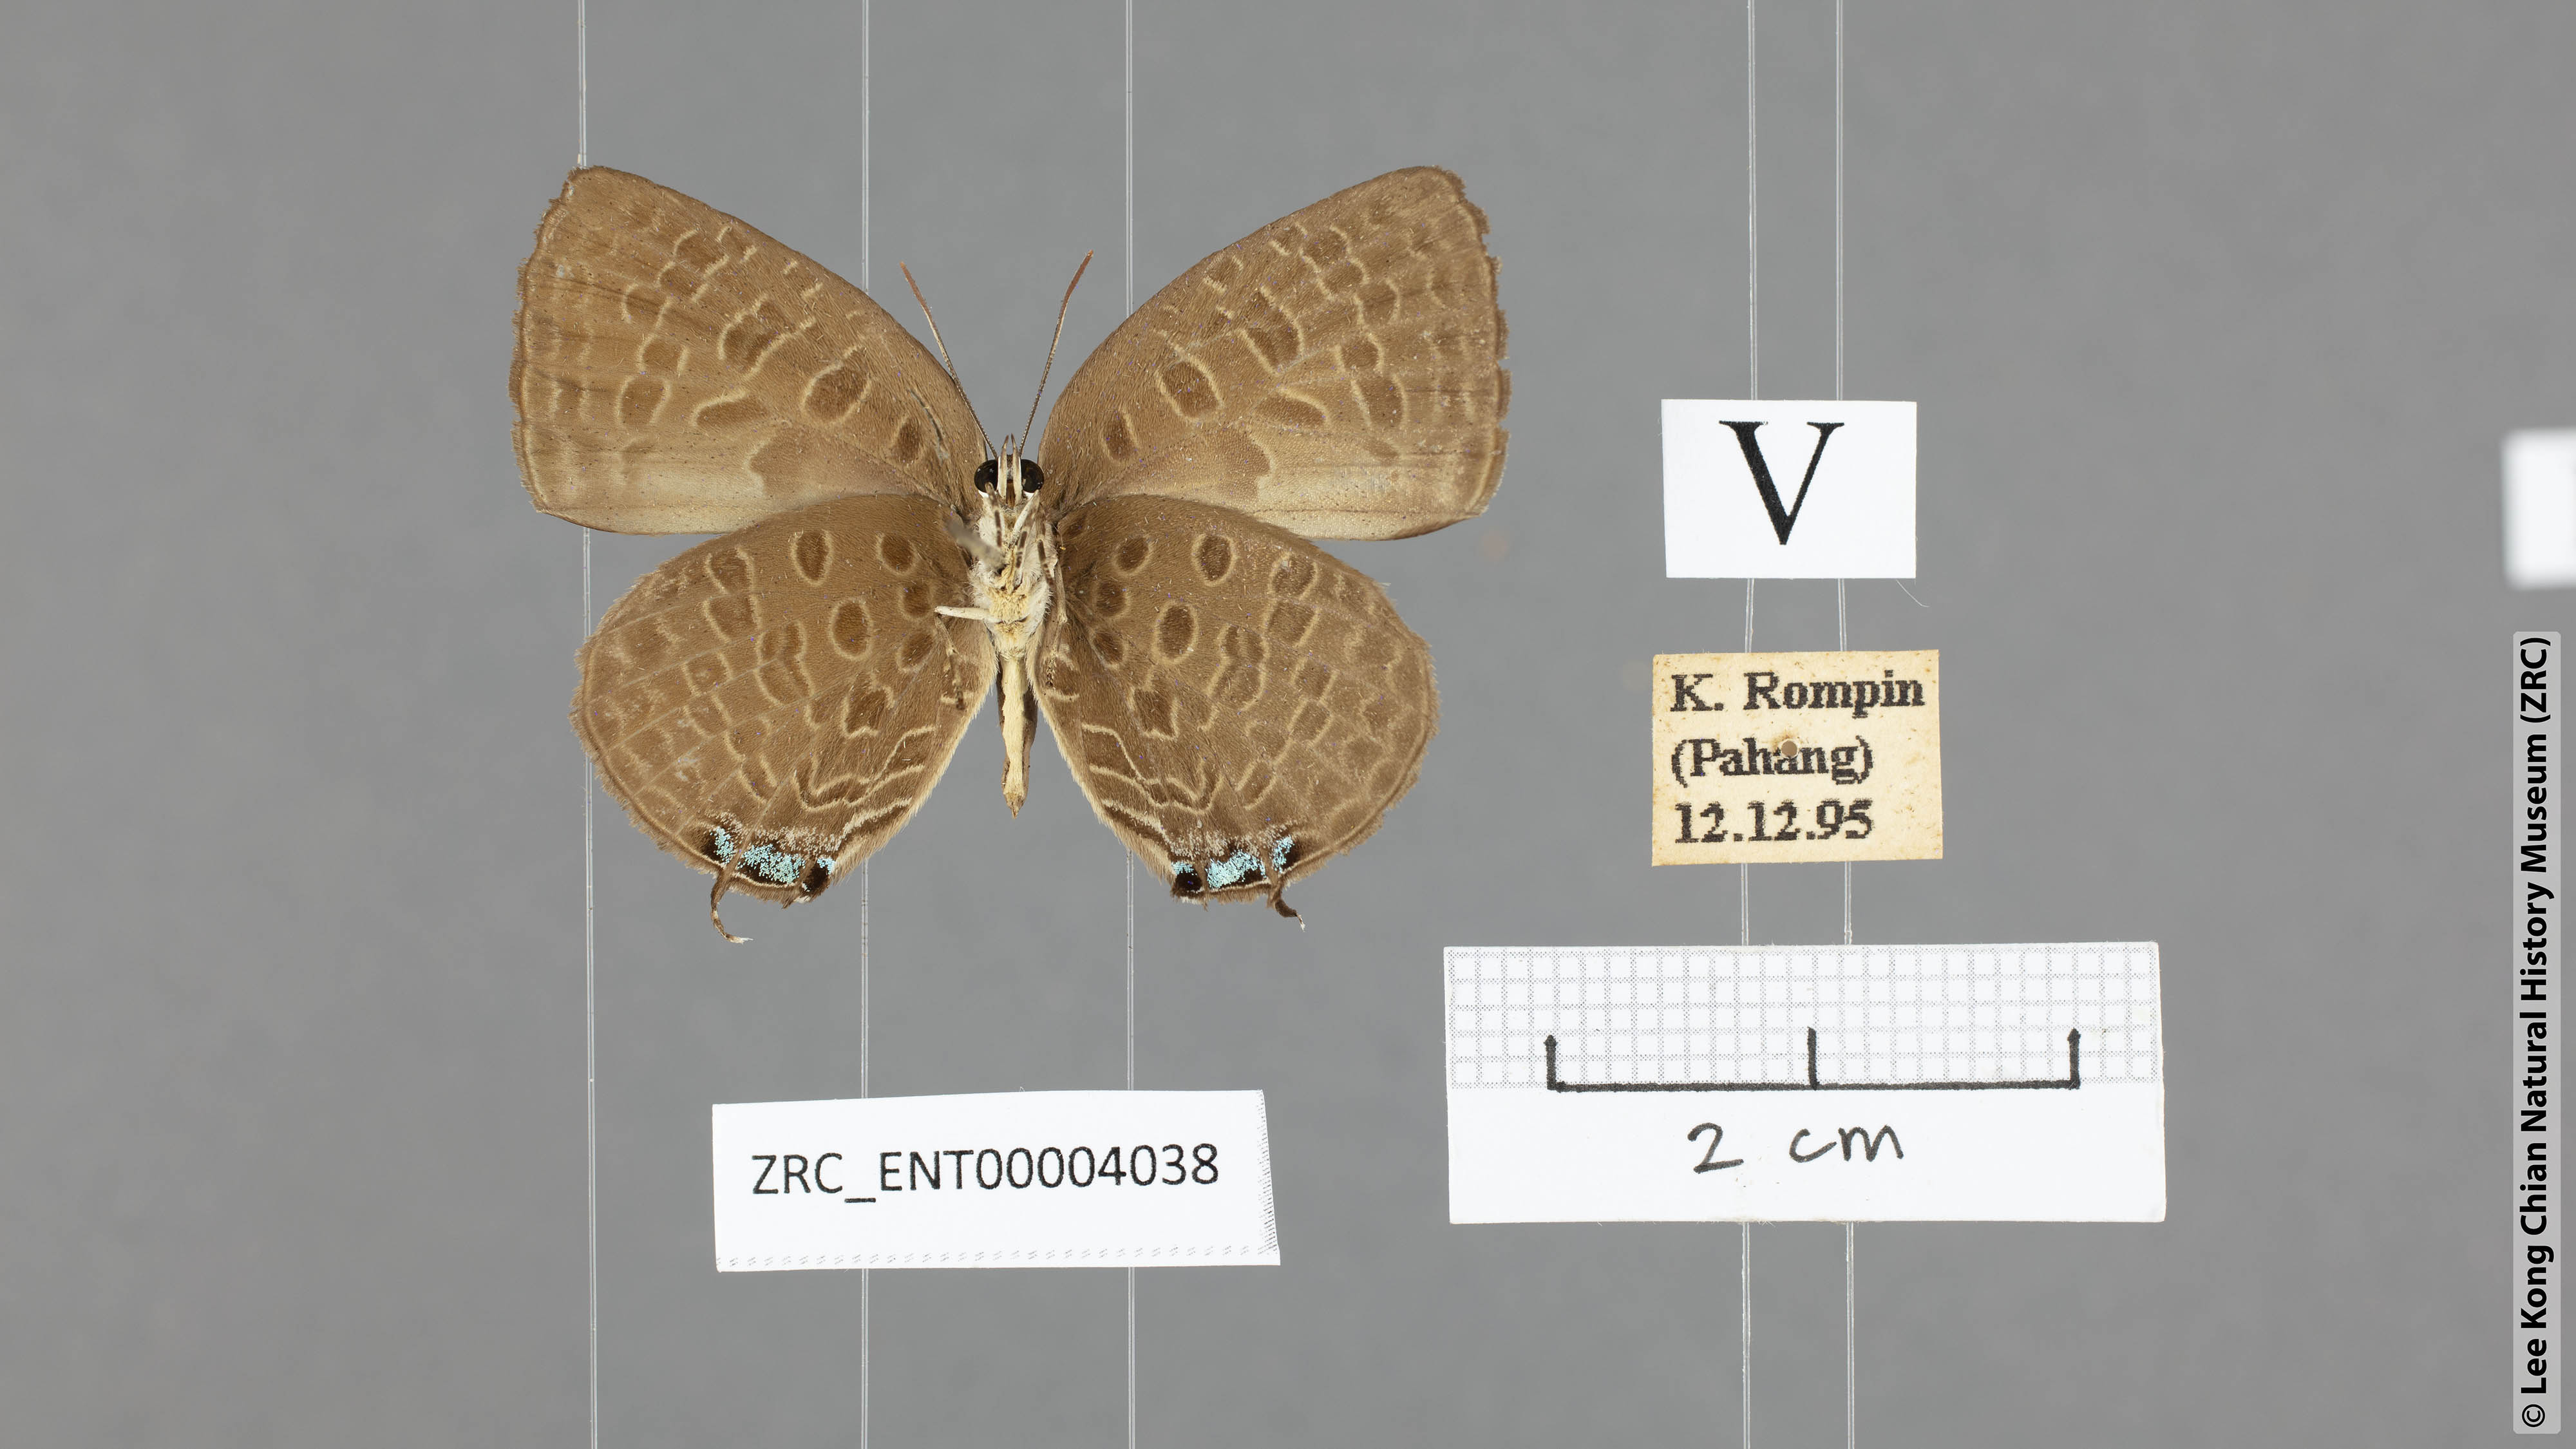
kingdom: Animalia
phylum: Arthropoda
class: Insecta
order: Lepidoptera
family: Lycaenidae
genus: Arhopala
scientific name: Arhopala pseudomuta
